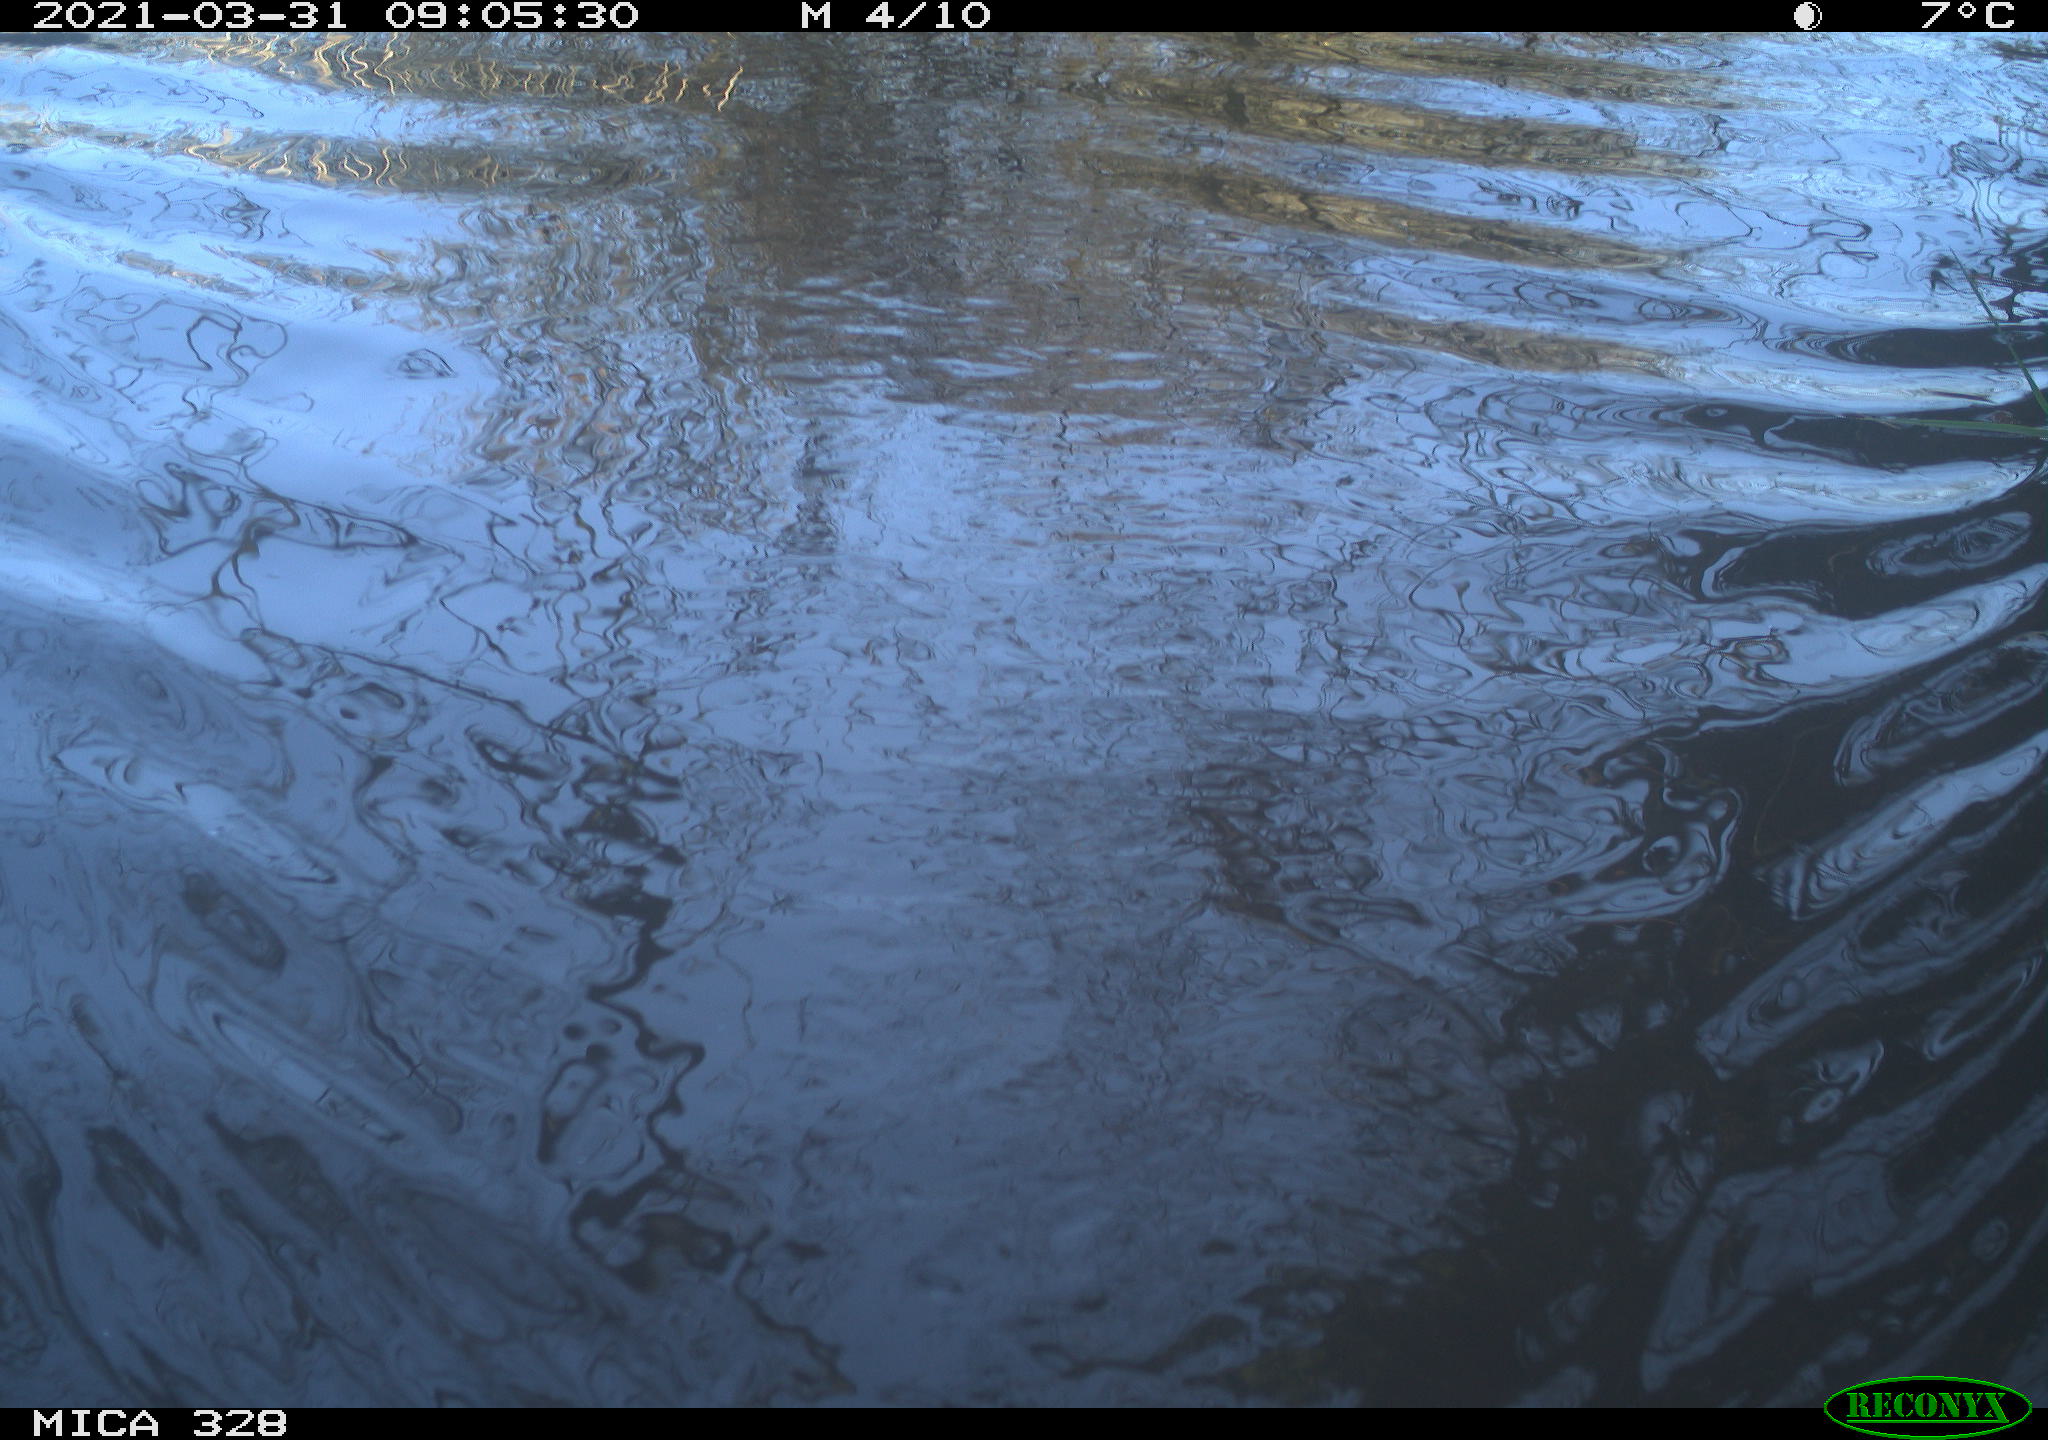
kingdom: Animalia
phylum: Chordata
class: Aves
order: Anseriformes
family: Anatidae
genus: Anas
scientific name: Anas platyrhynchos
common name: Mallard
